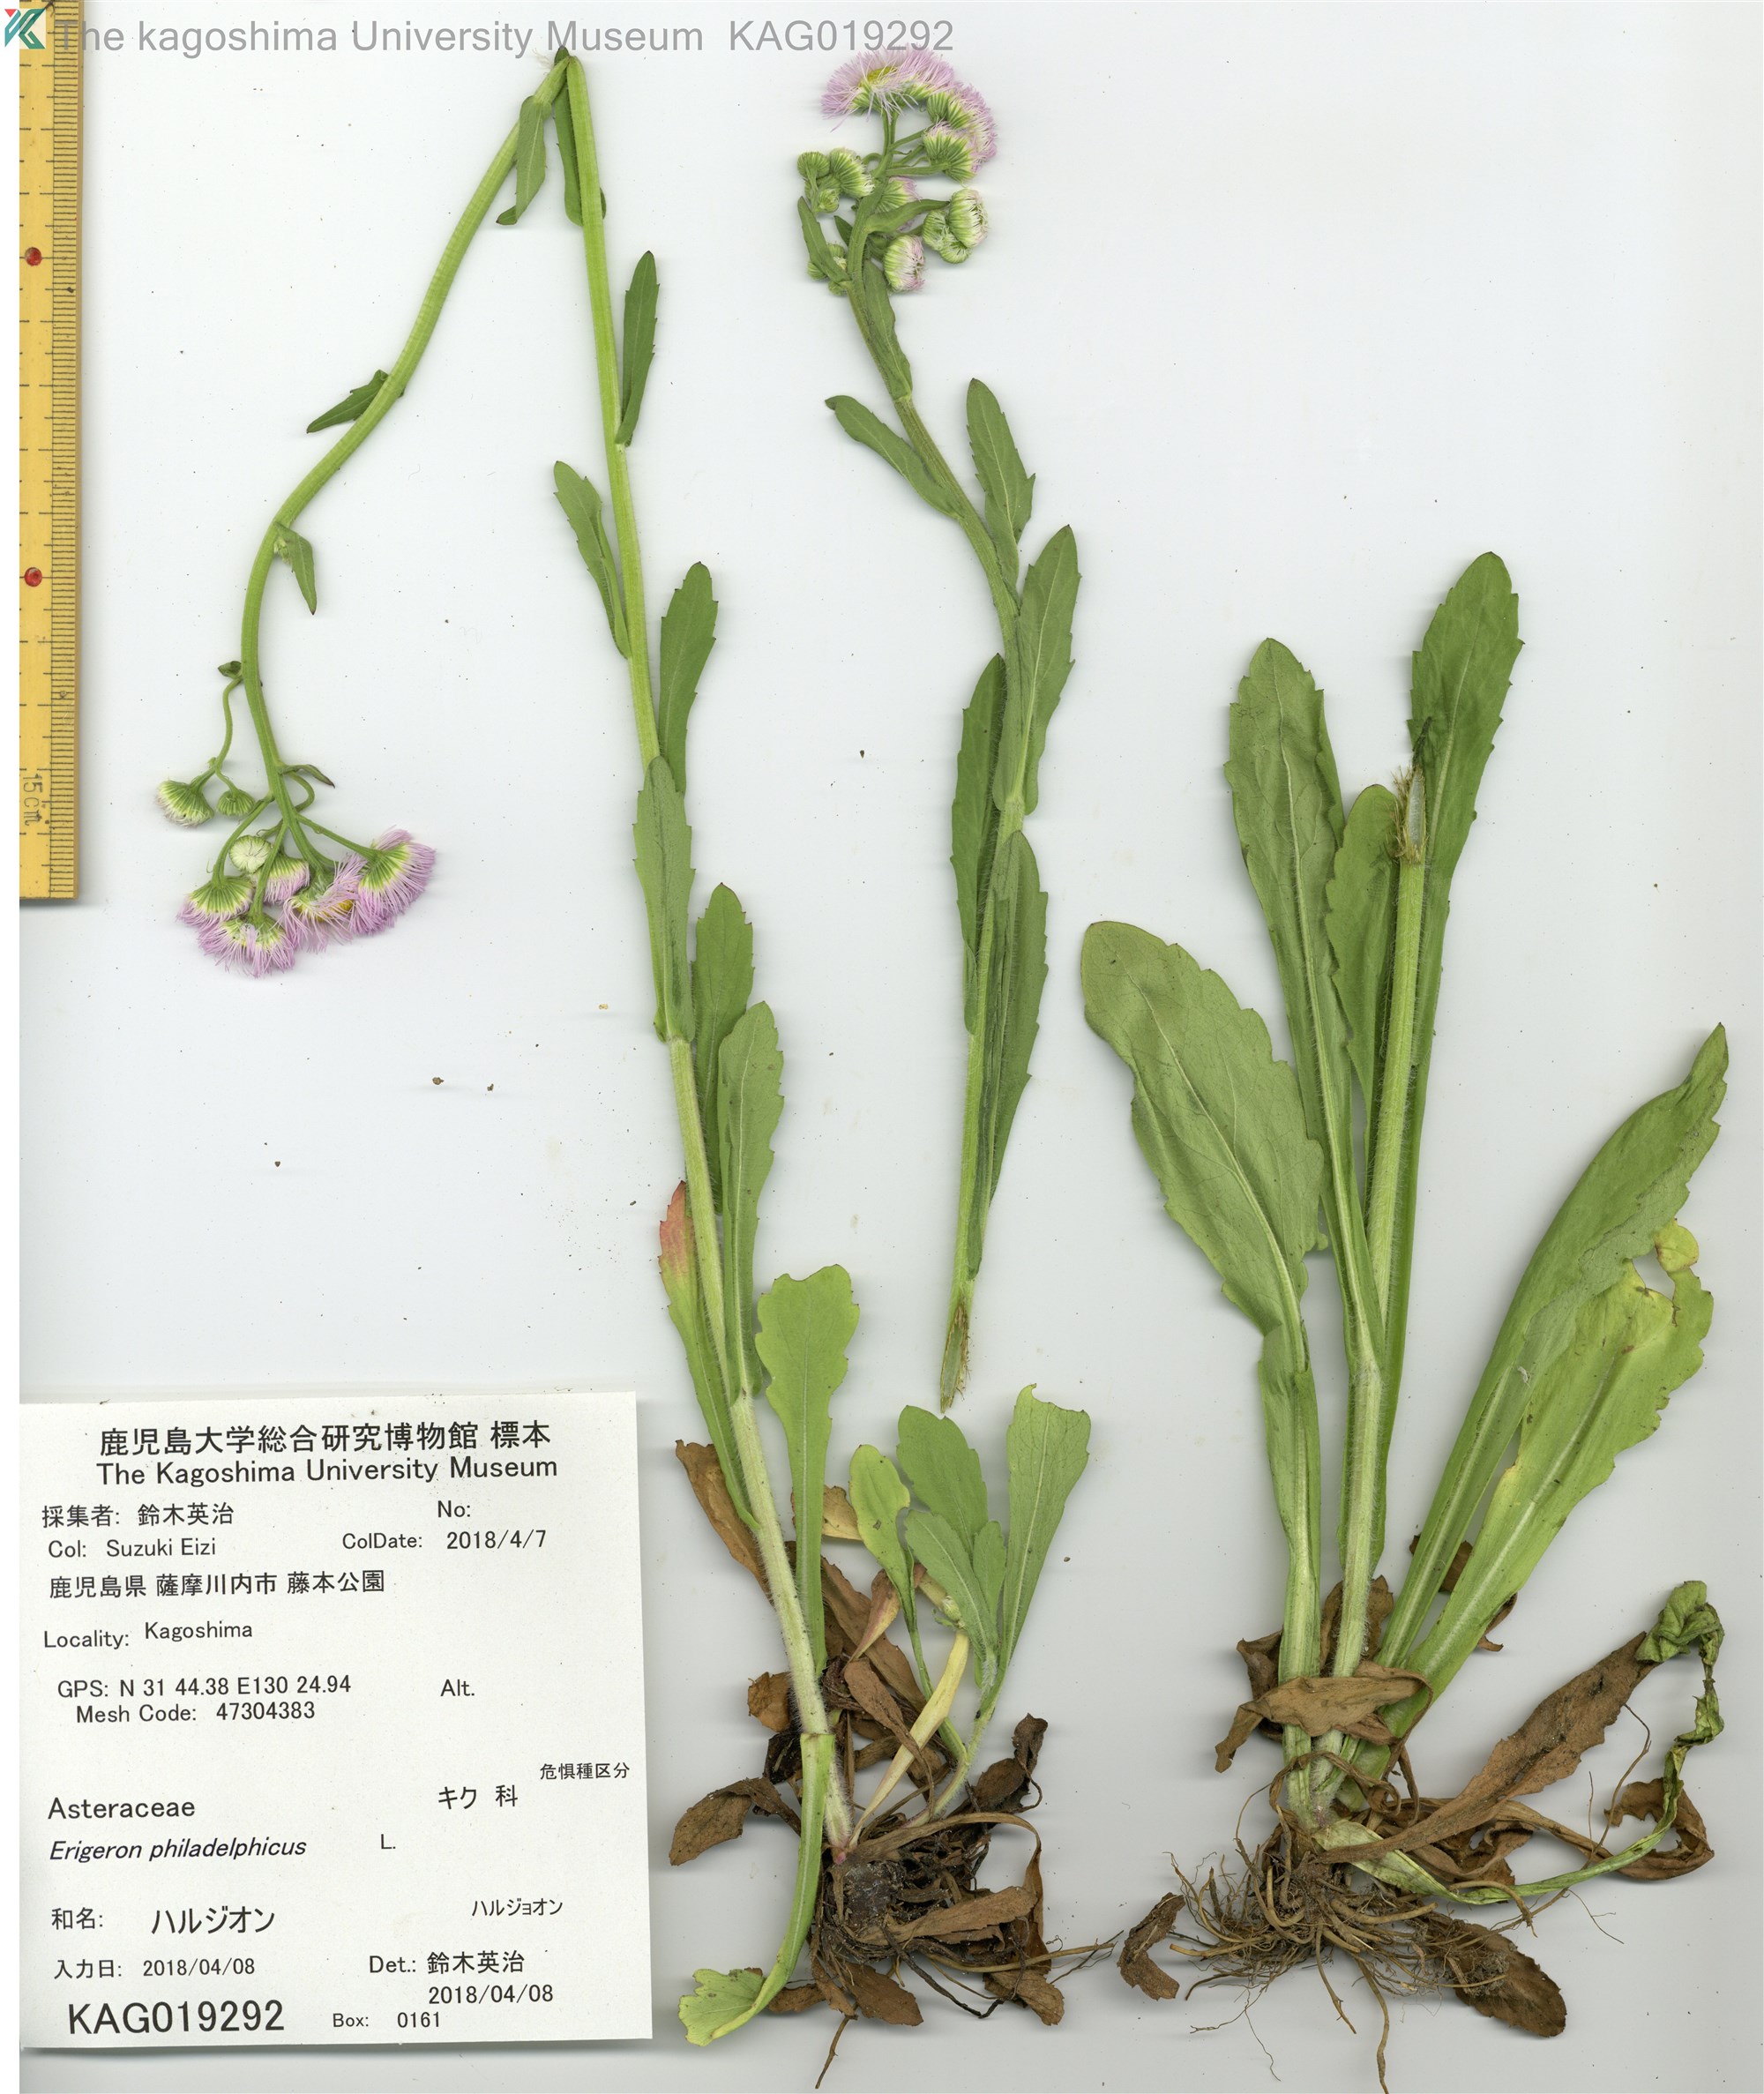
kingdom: Plantae
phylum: Tracheophyta
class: Magnoliopsida
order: Asterales
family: Asteraceae
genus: Erigeron
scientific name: Erigeron philadelphicus
